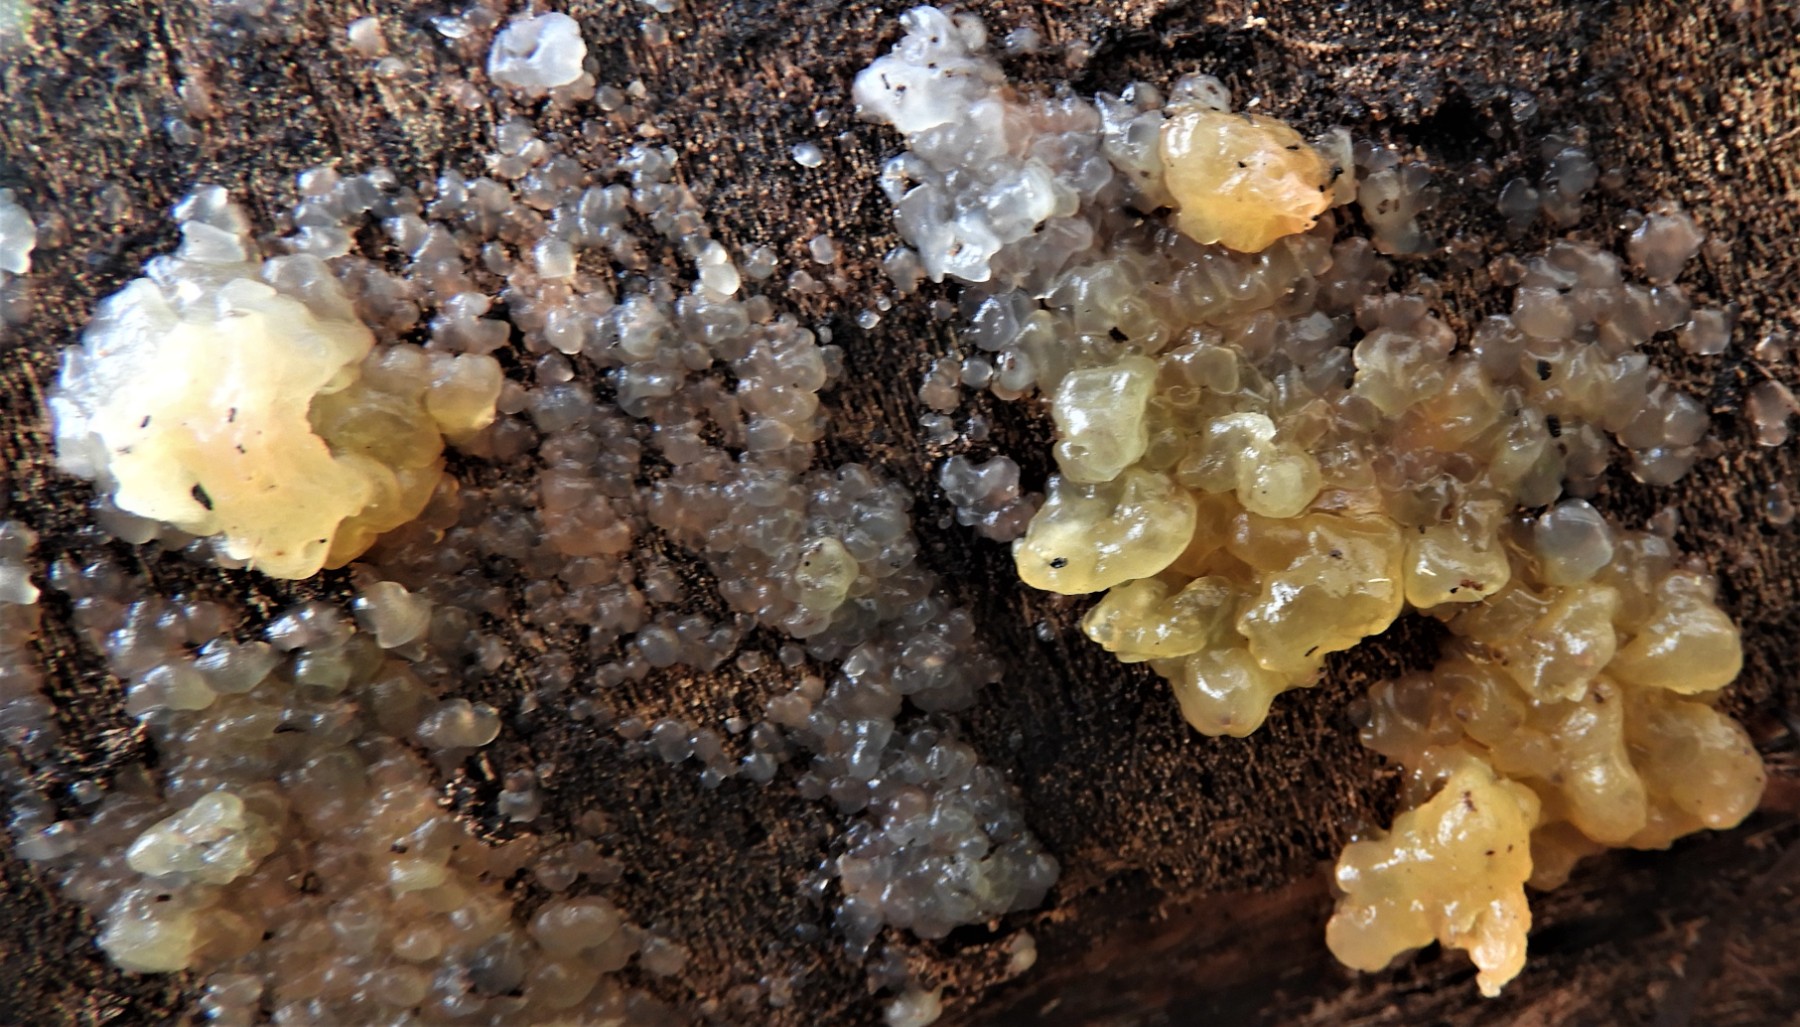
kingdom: Fungi
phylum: Basidiomycota
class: Agaricomycetes
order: Auriculariales
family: Hyaloriaceae
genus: Myxarium
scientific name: Myxarium nucleatum
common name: klar bævretop
